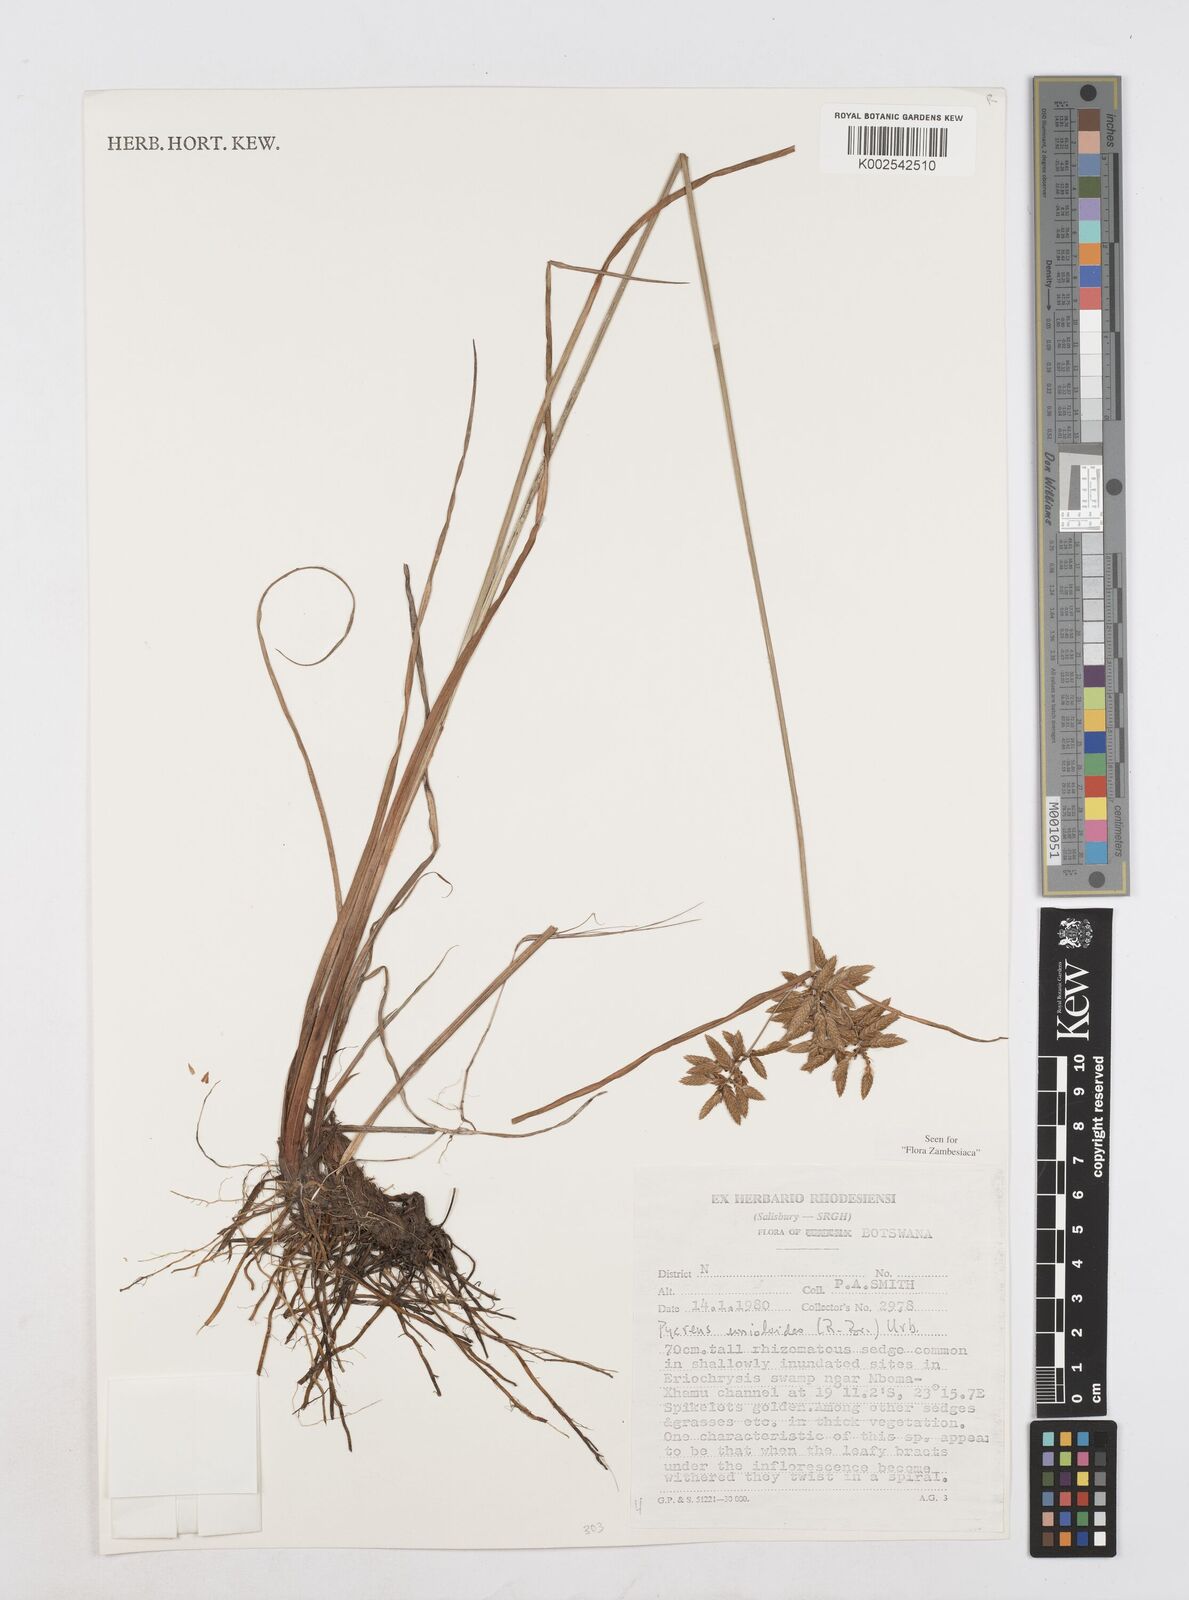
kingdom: Plantae
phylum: Tracheophyta
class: Liliopsida
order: Poales
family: Cyperaceae
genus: Cyperus
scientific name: Cyperus unioloides
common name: Uniola flatsedge
